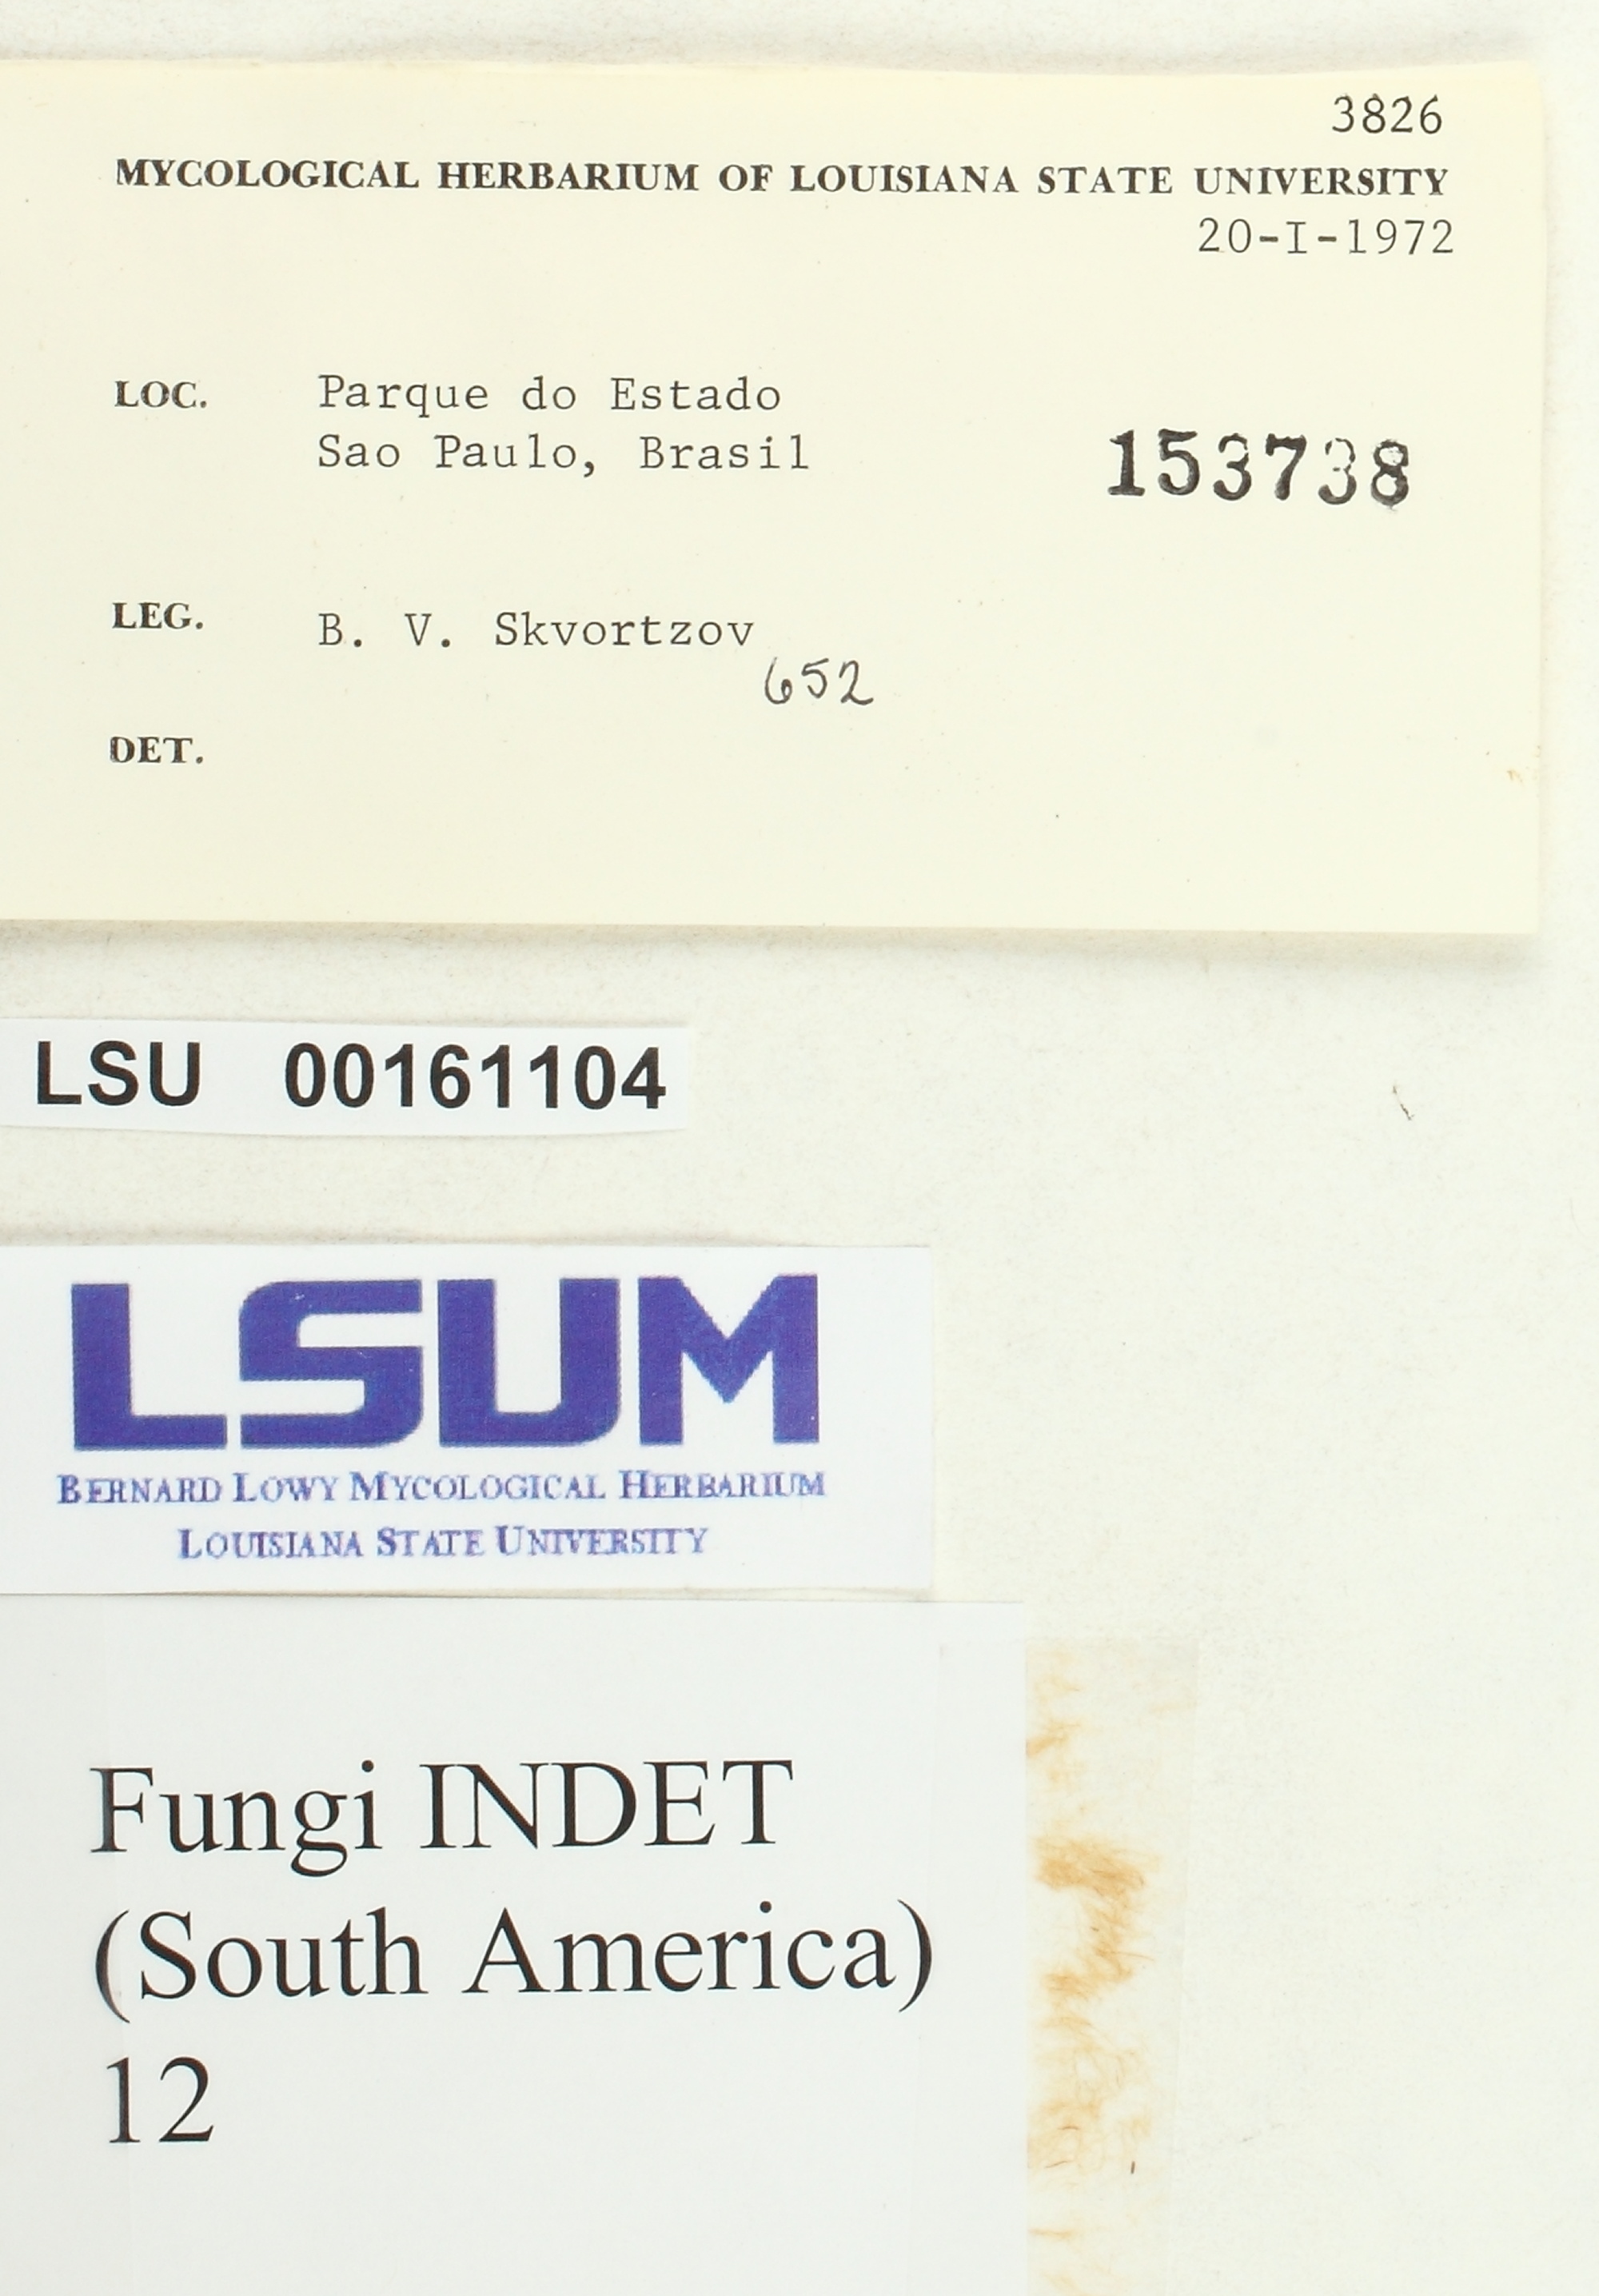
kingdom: Fungi
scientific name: Fungi
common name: Fungi
